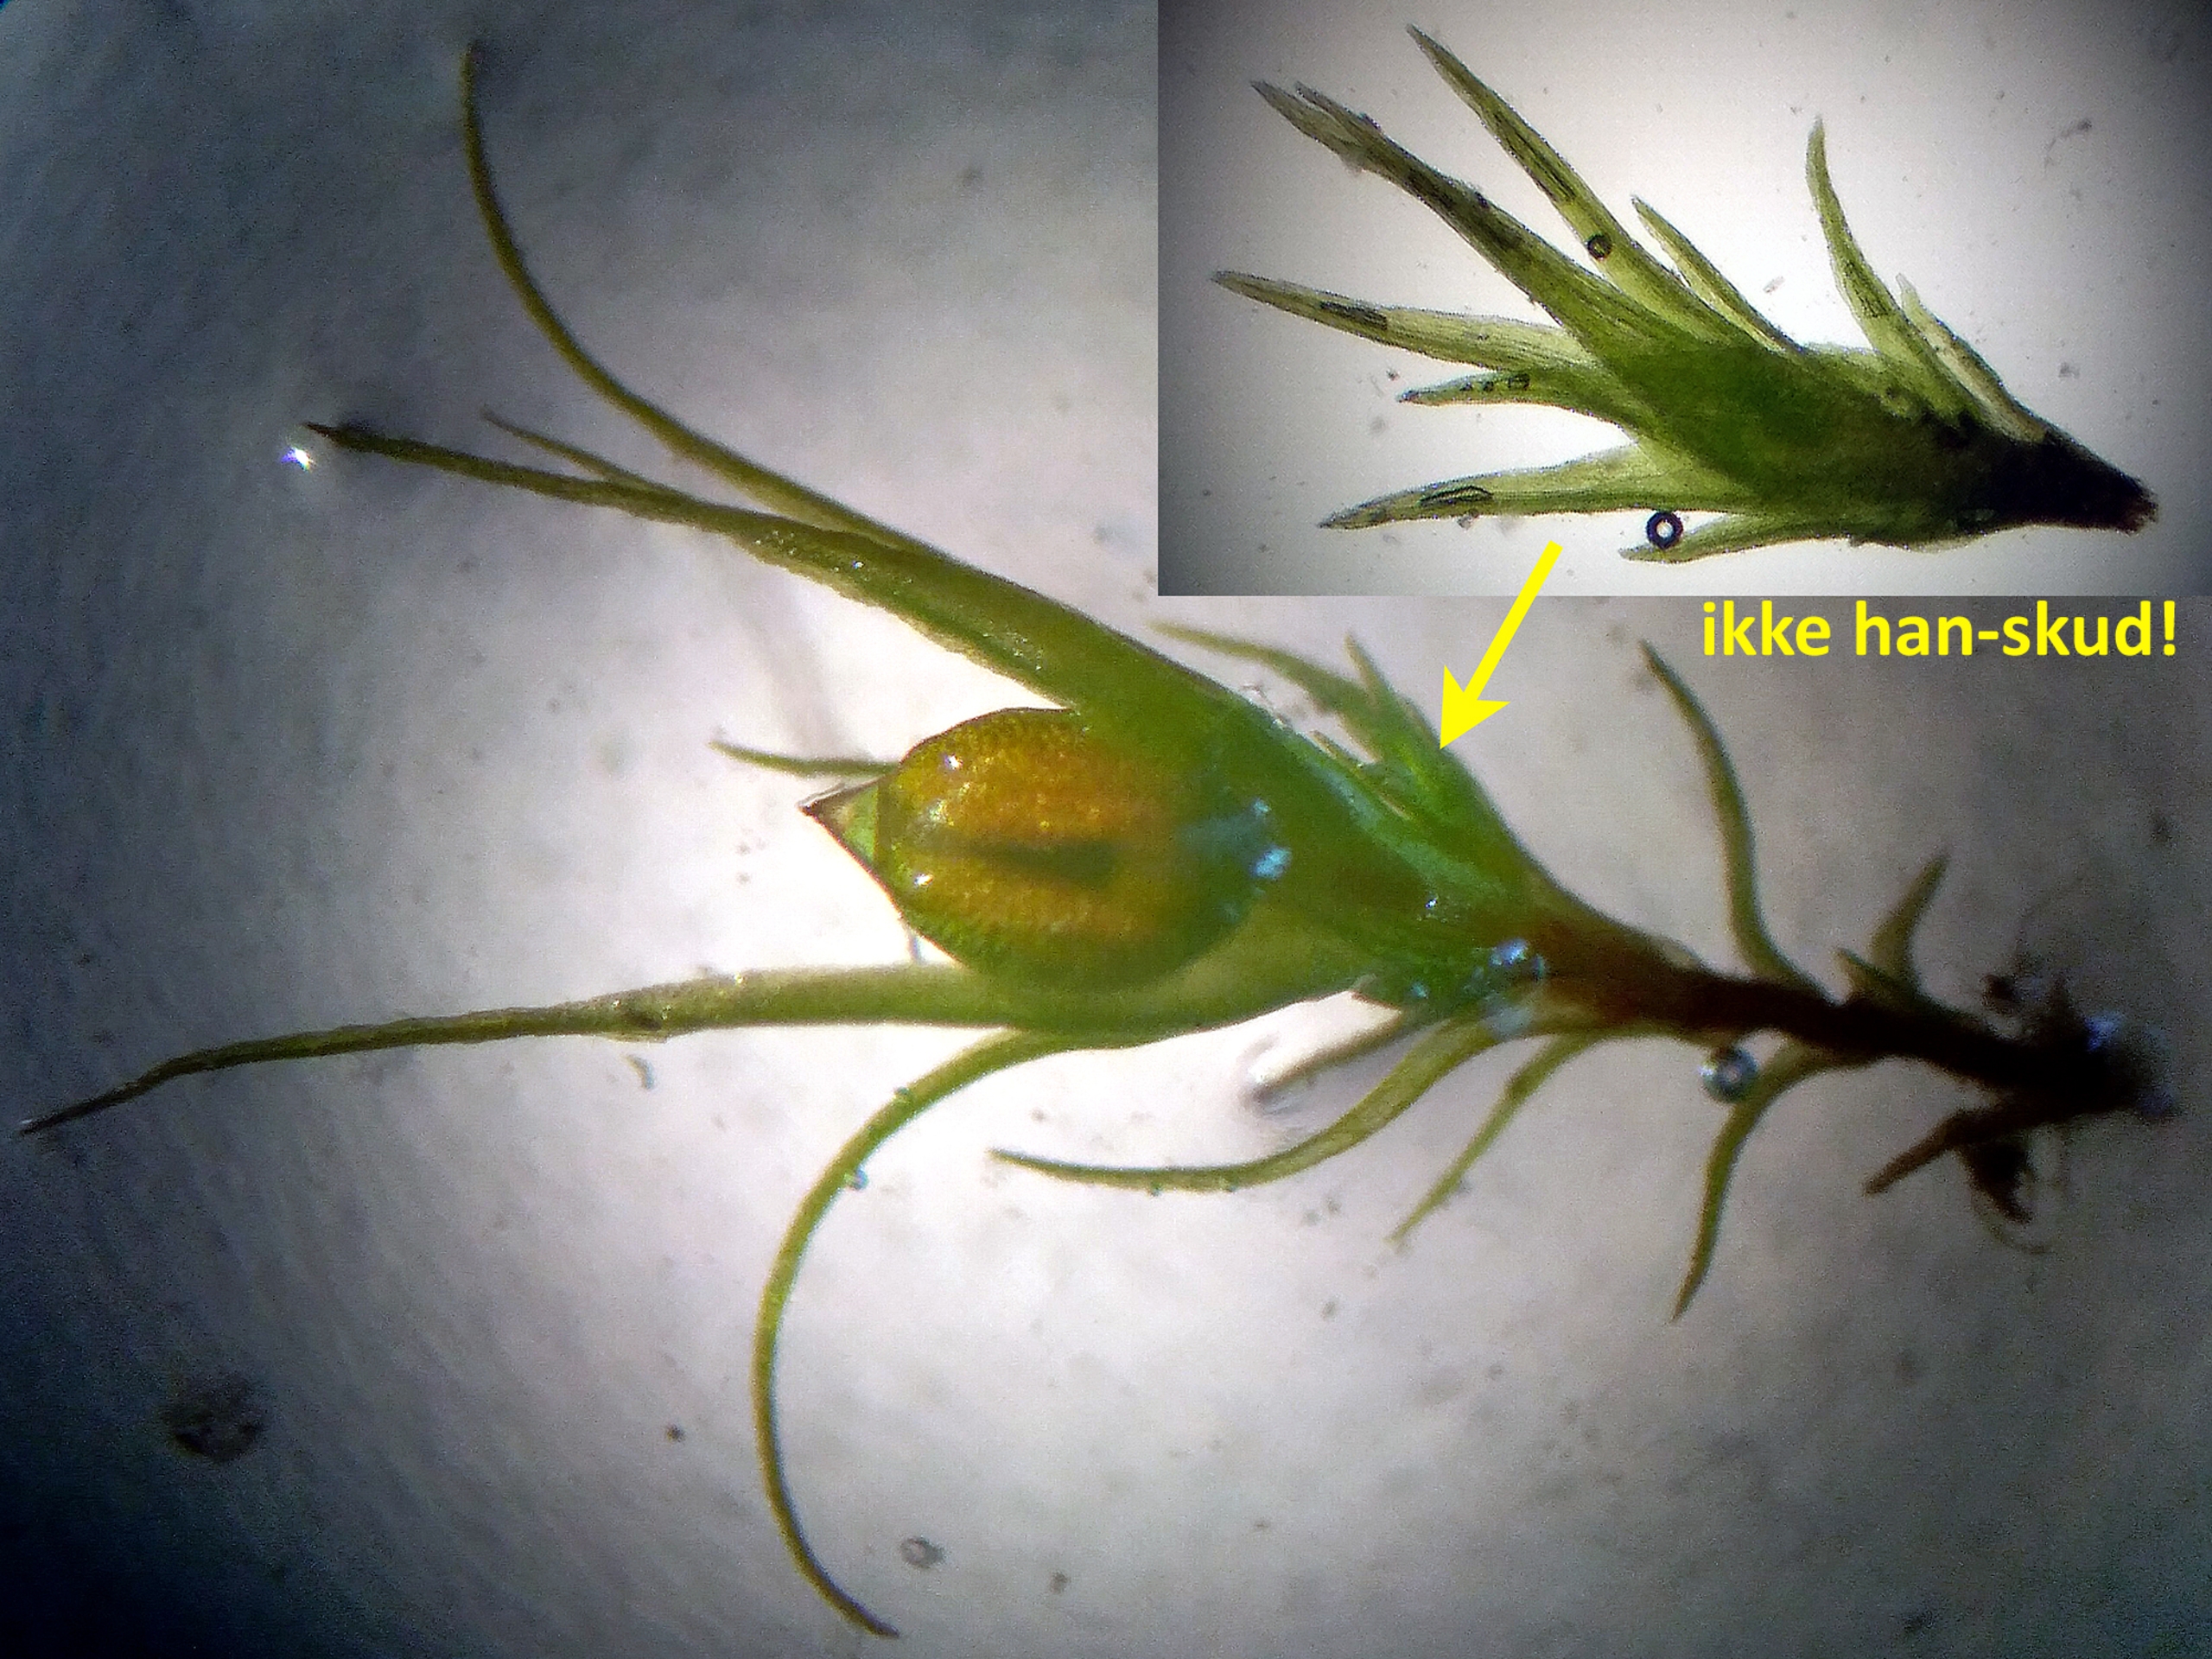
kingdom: Plantae
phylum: Bryophyta
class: Bryopsida
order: Dicranales
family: Ditrichaceae
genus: Pleuridium
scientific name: Pleuridium acuminatum
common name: Siddende sylbladsmos
